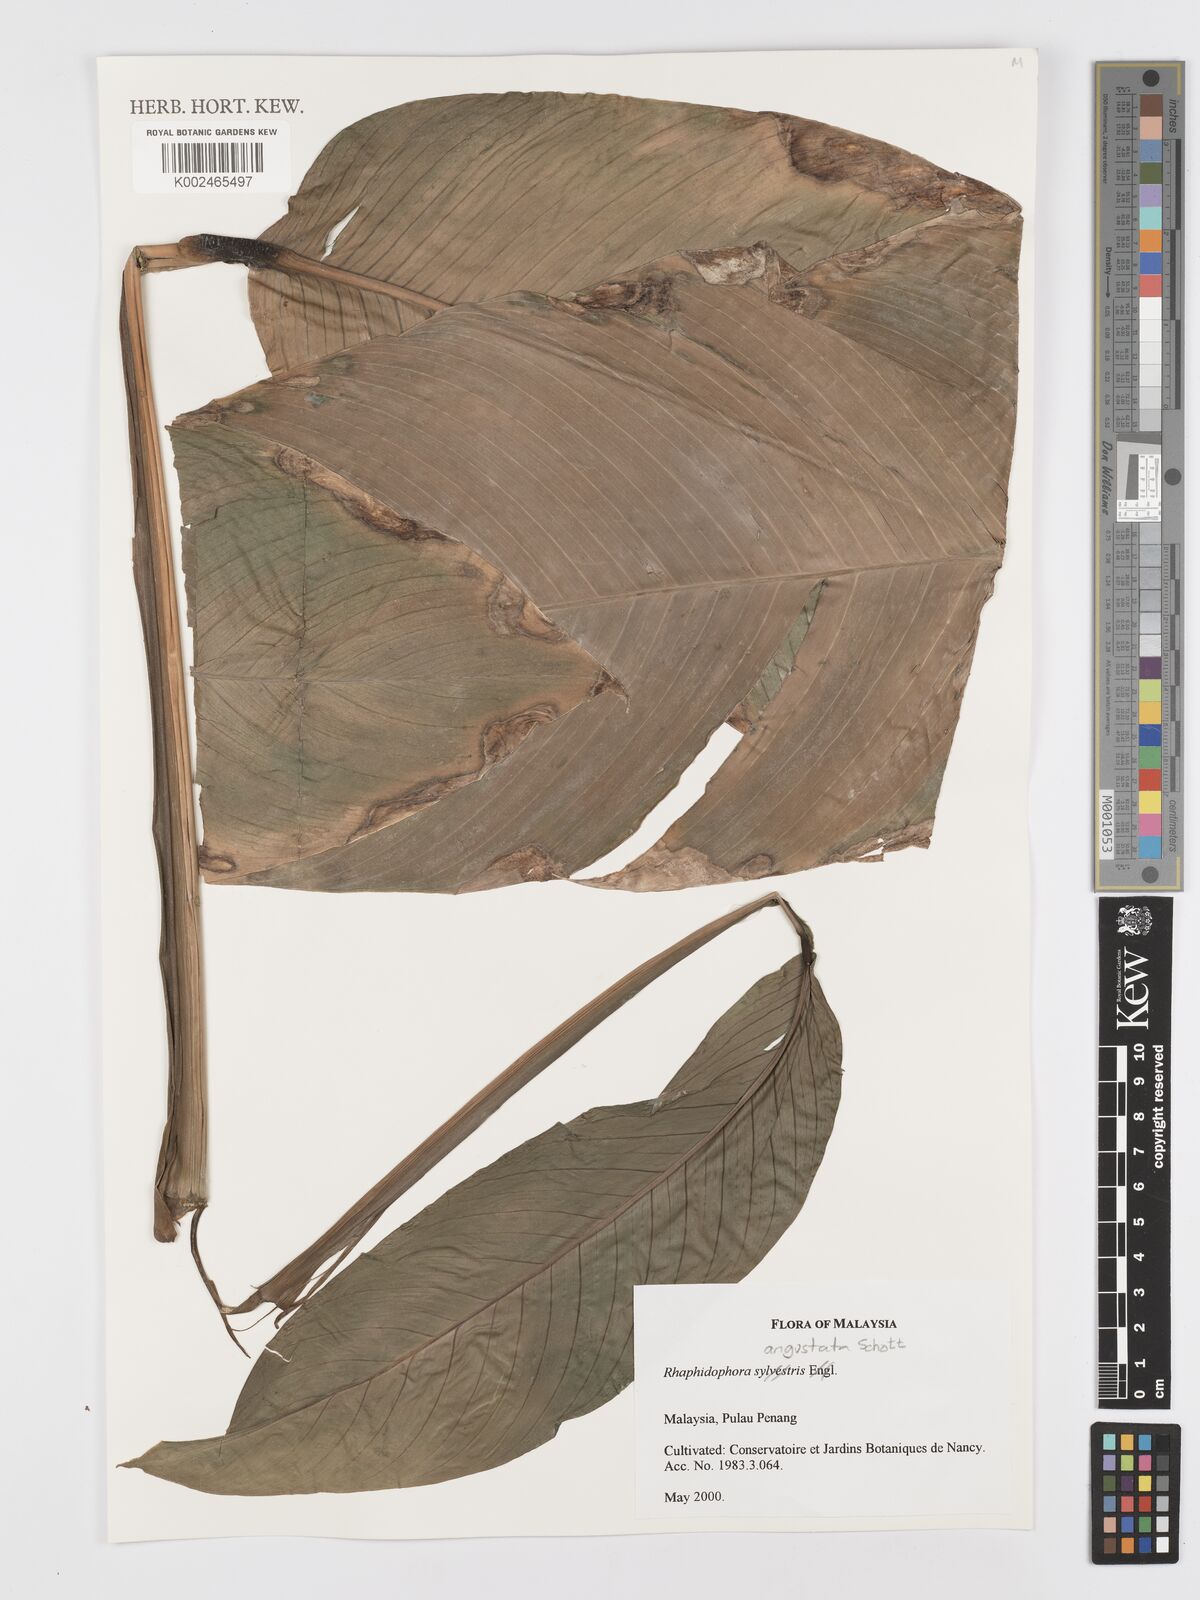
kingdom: Plantae
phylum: Tracheophyta
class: Liliopsida
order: Alismatales
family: Araceae
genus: Rhaphidophora
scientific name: Rhaphidophora angustata
